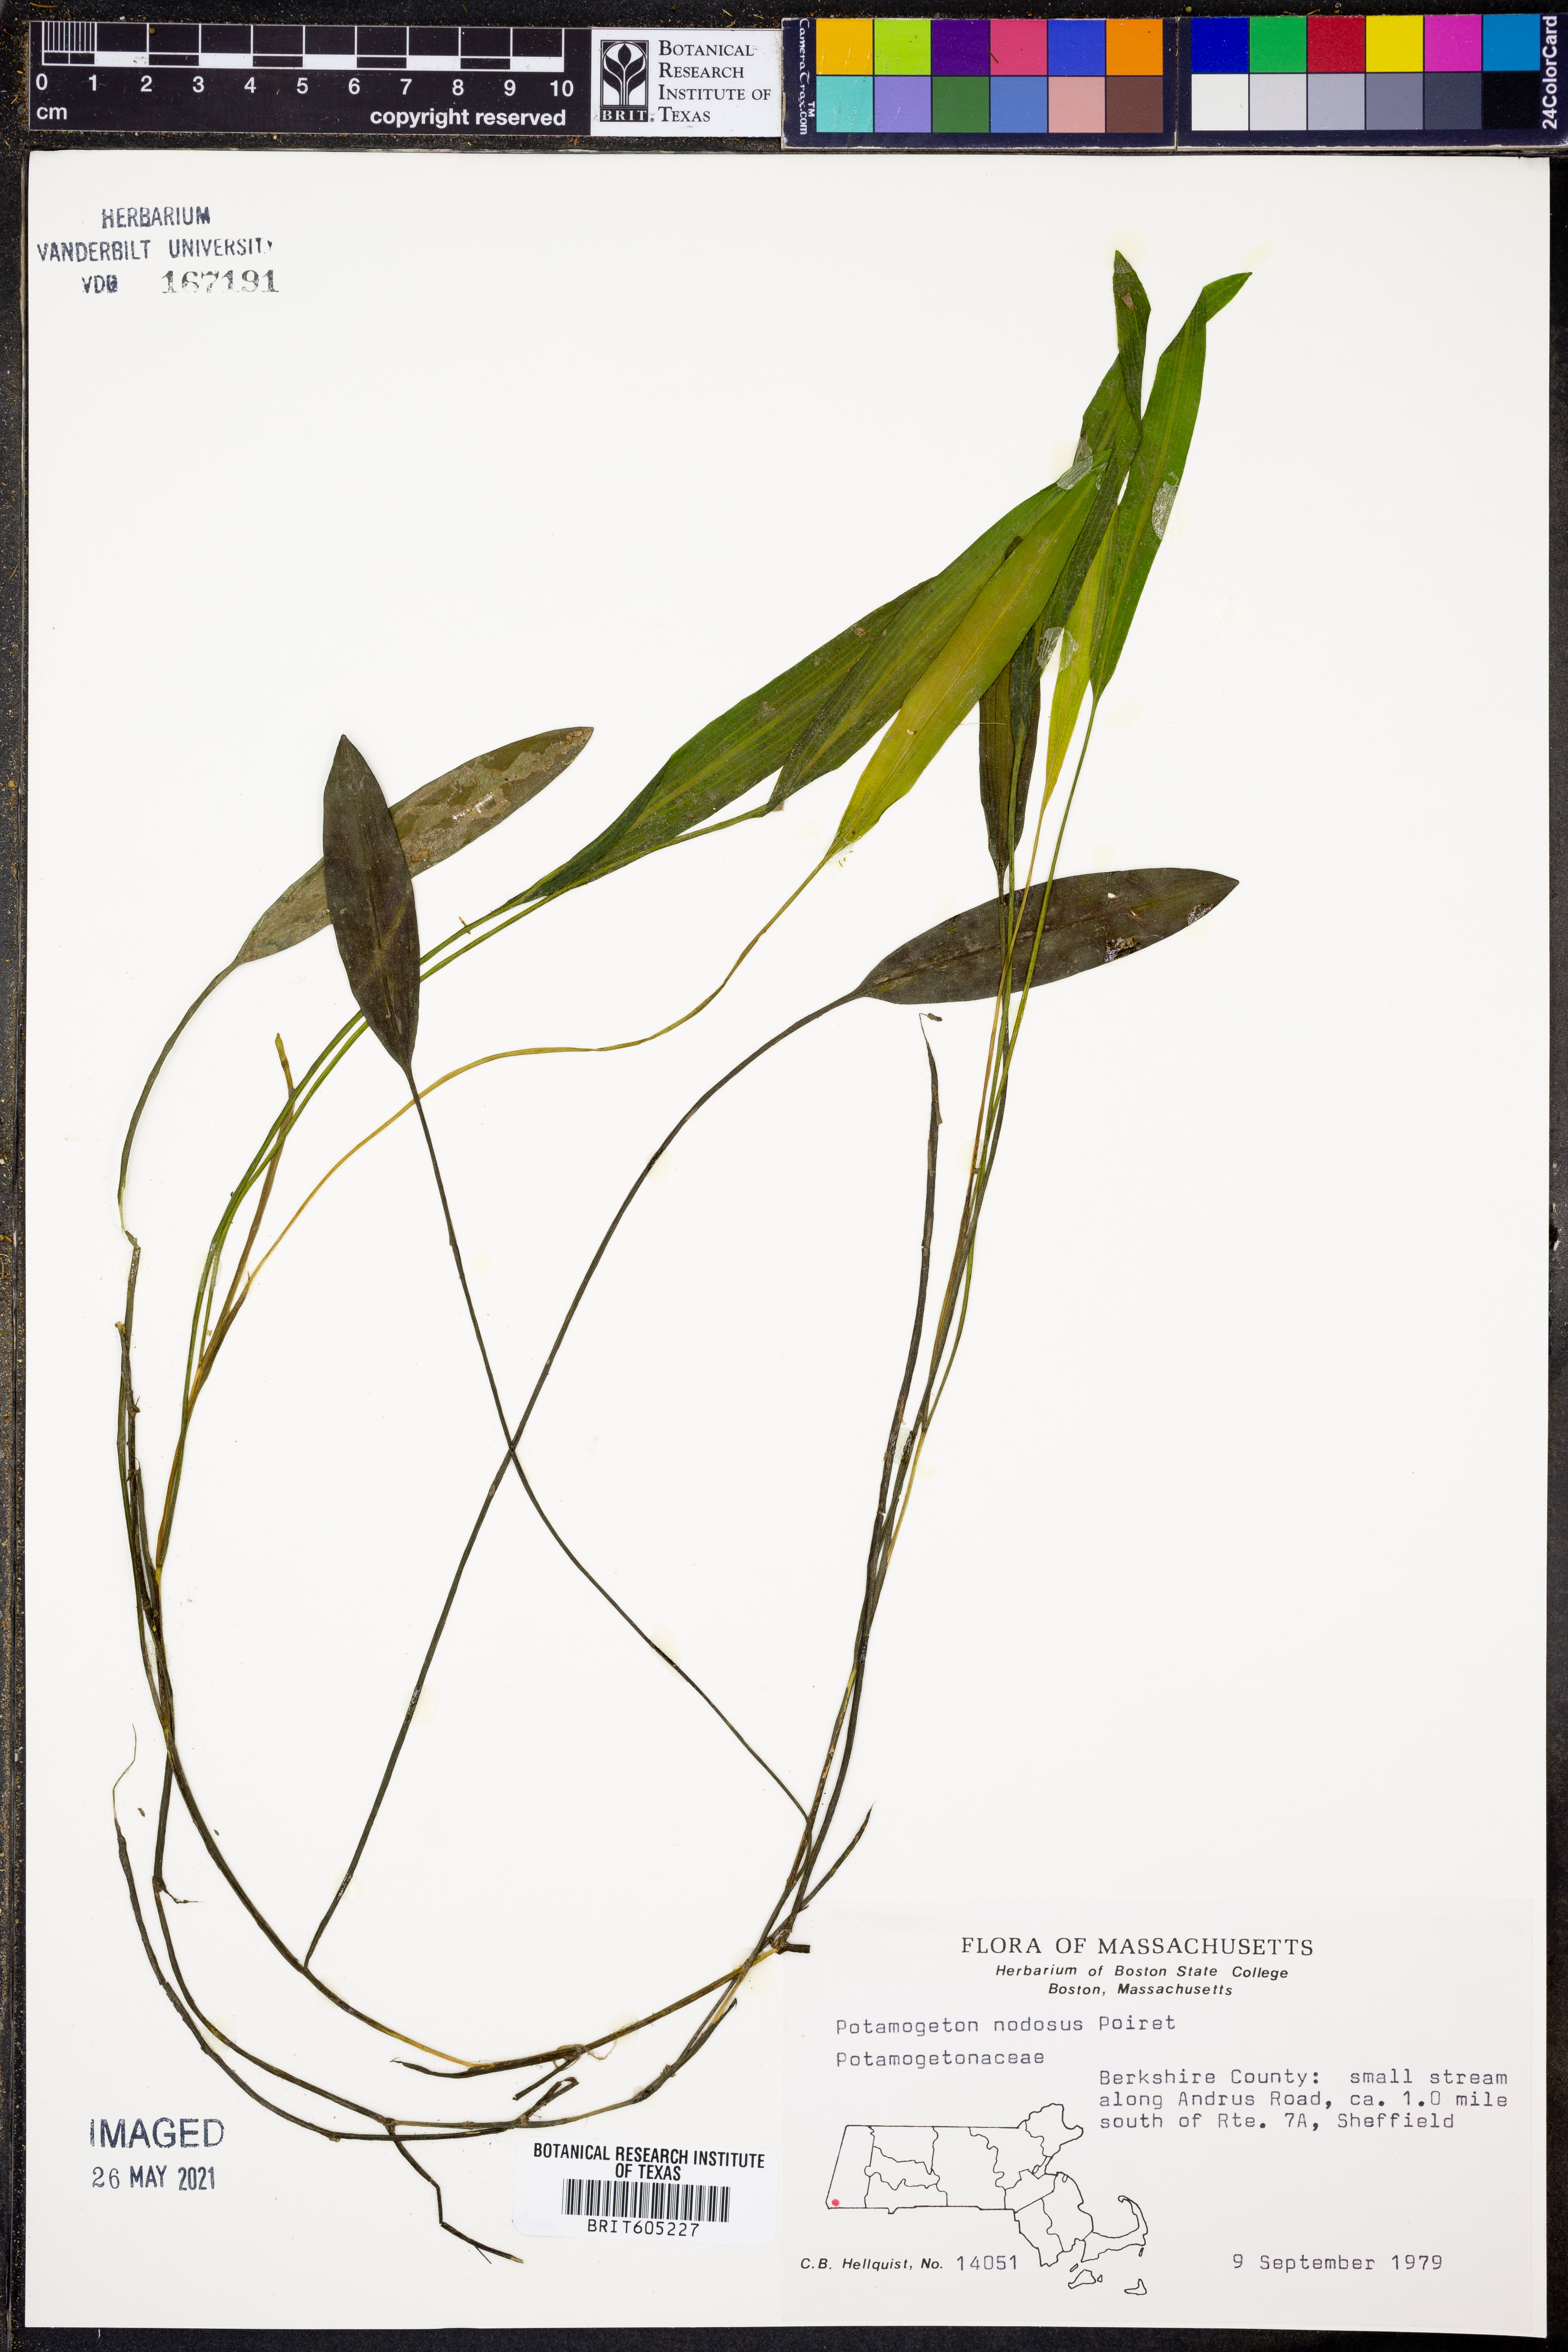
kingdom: Plantae
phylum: Tracheophyta
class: Liliopsida
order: Alismatales
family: Potamogetonaceae
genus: Potamogeton
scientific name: Potamogeton nodosus
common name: Loddon pondweed
